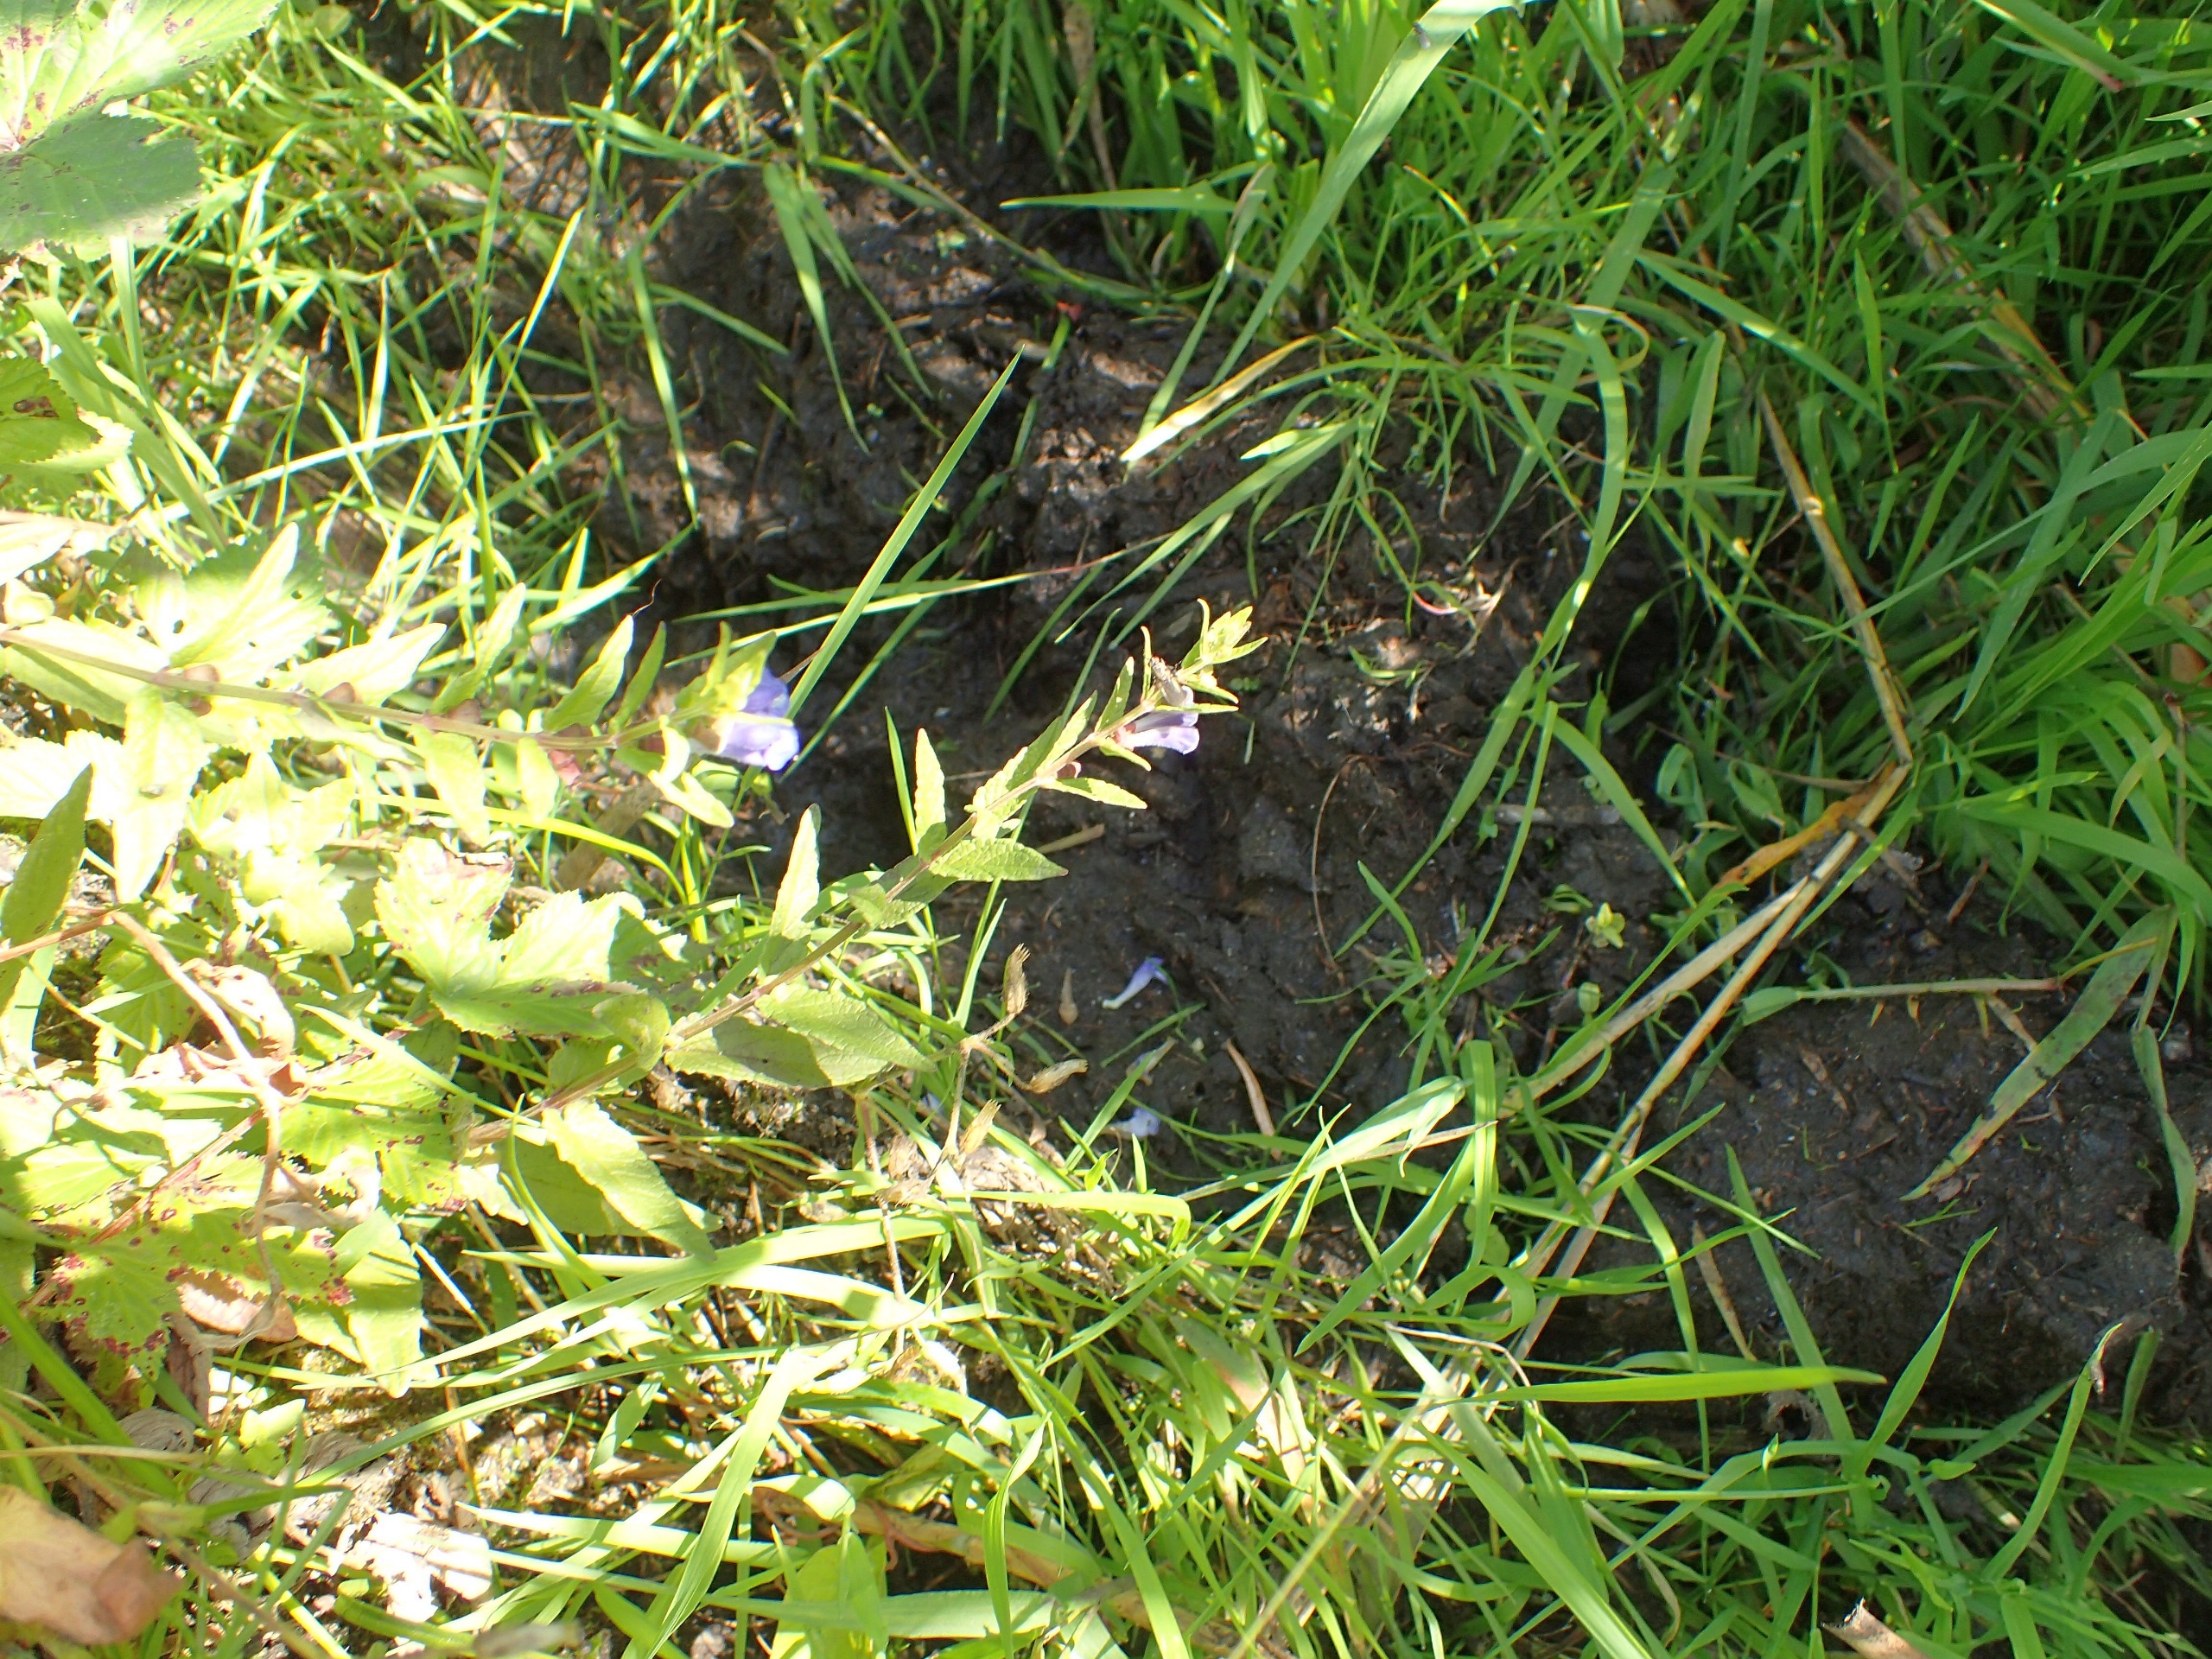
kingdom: Plantae
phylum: Tracheophyta
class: Magnoliopsida
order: Lamiales
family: Lamiaceae
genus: Scutellaria
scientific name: Scutellaria galericulata
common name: Almindelig skjolddrager
